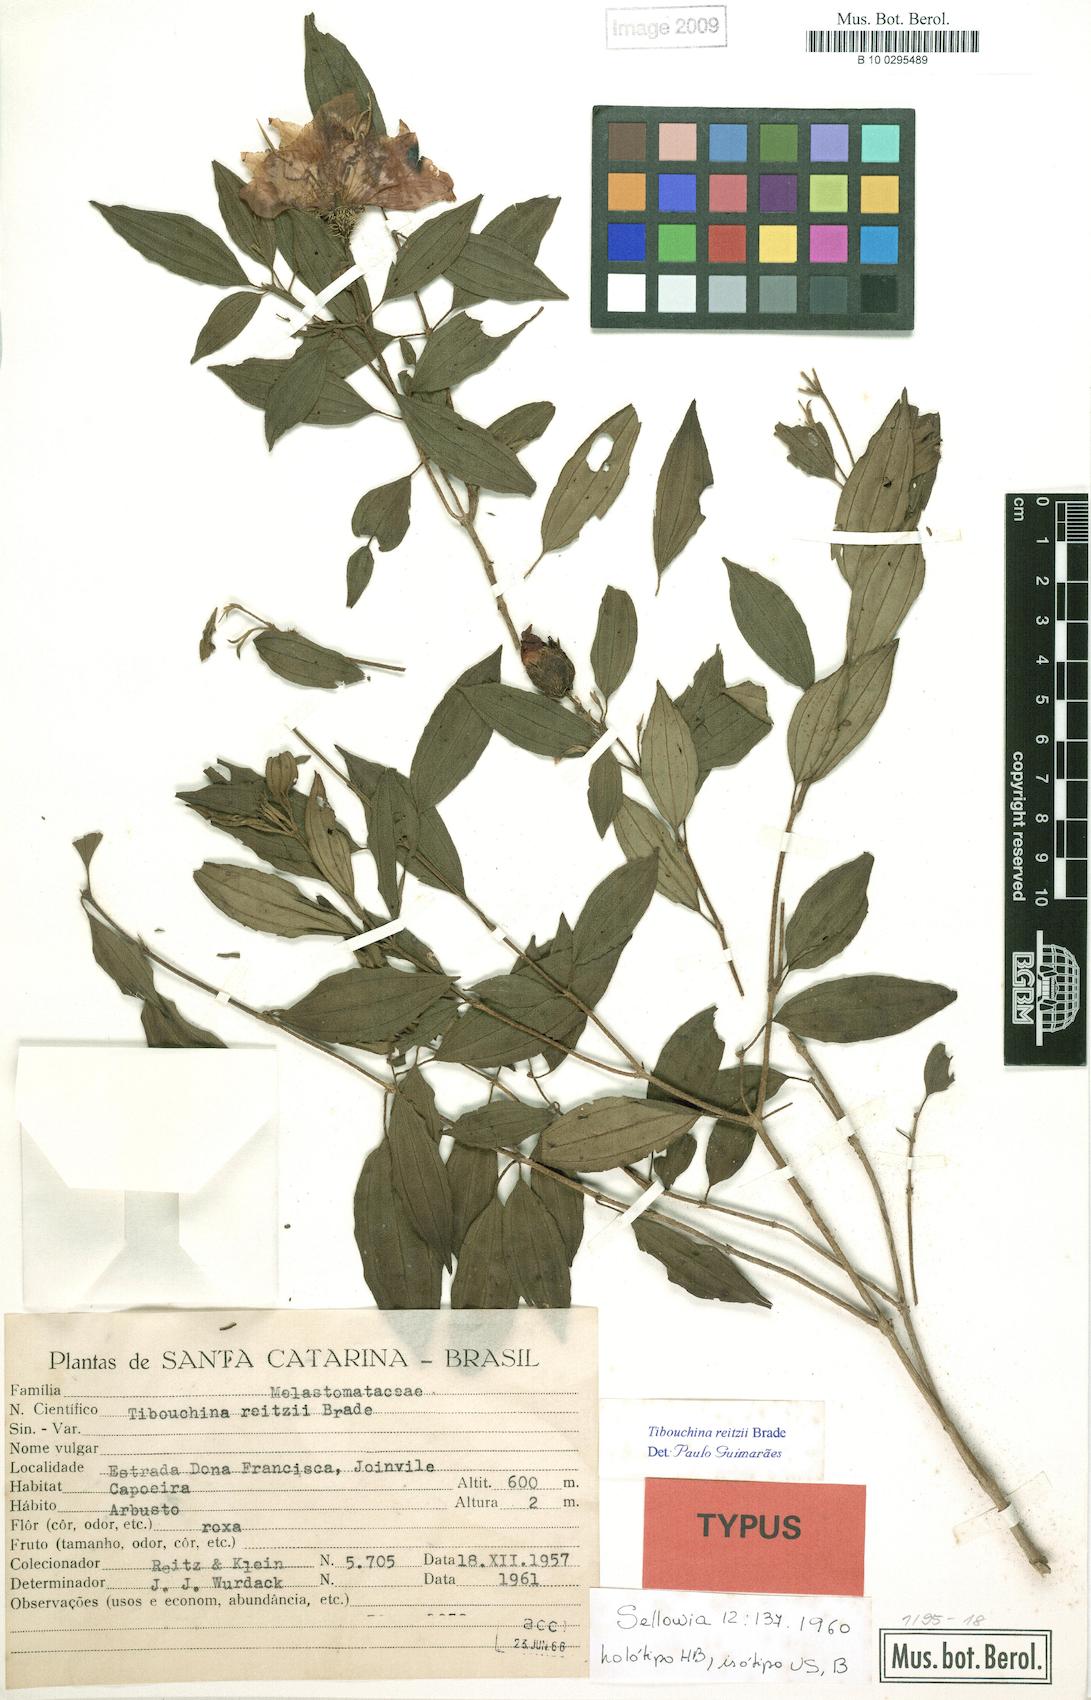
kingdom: Plantae
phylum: Tracheophyta
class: Magnoliopsida
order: Myrtales
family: Melastomataceae
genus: Pleroma
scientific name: Pleroma reitzii
